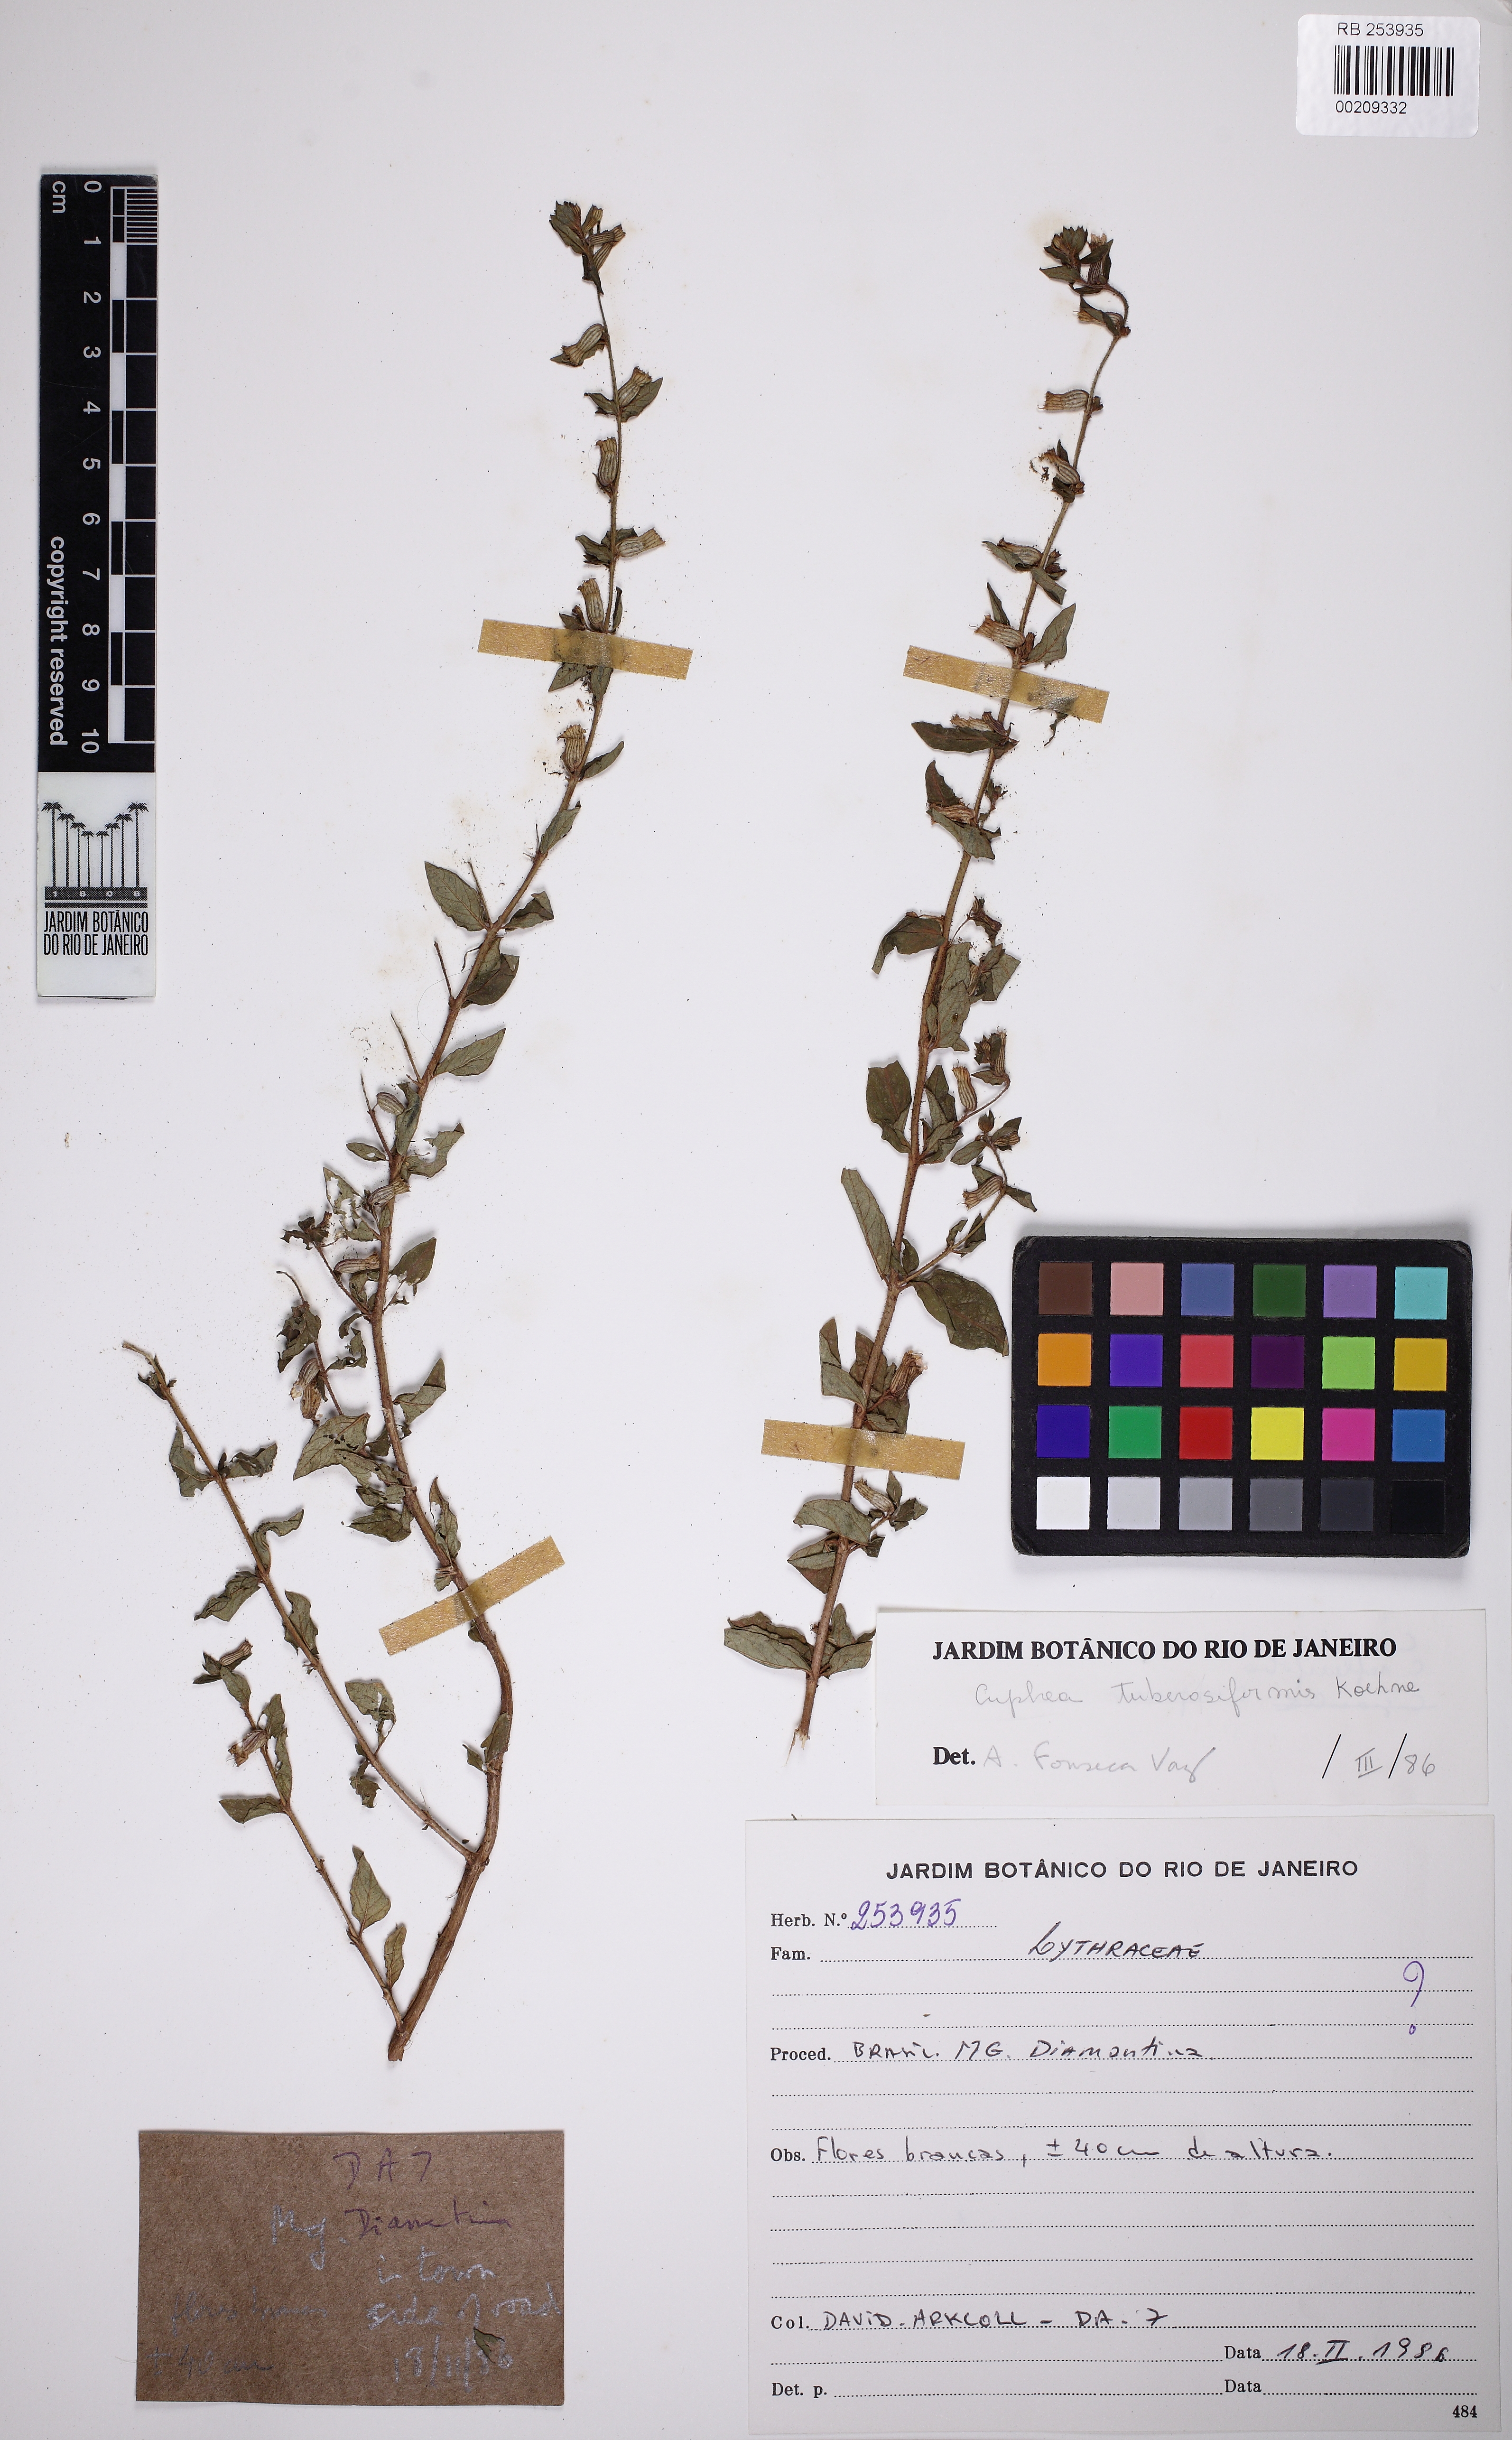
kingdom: Plantae
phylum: Tracheophyta
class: Magnoliopsida
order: Myrtales
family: Lythraceae
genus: Cuphea
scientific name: Cuphea confertiflora
